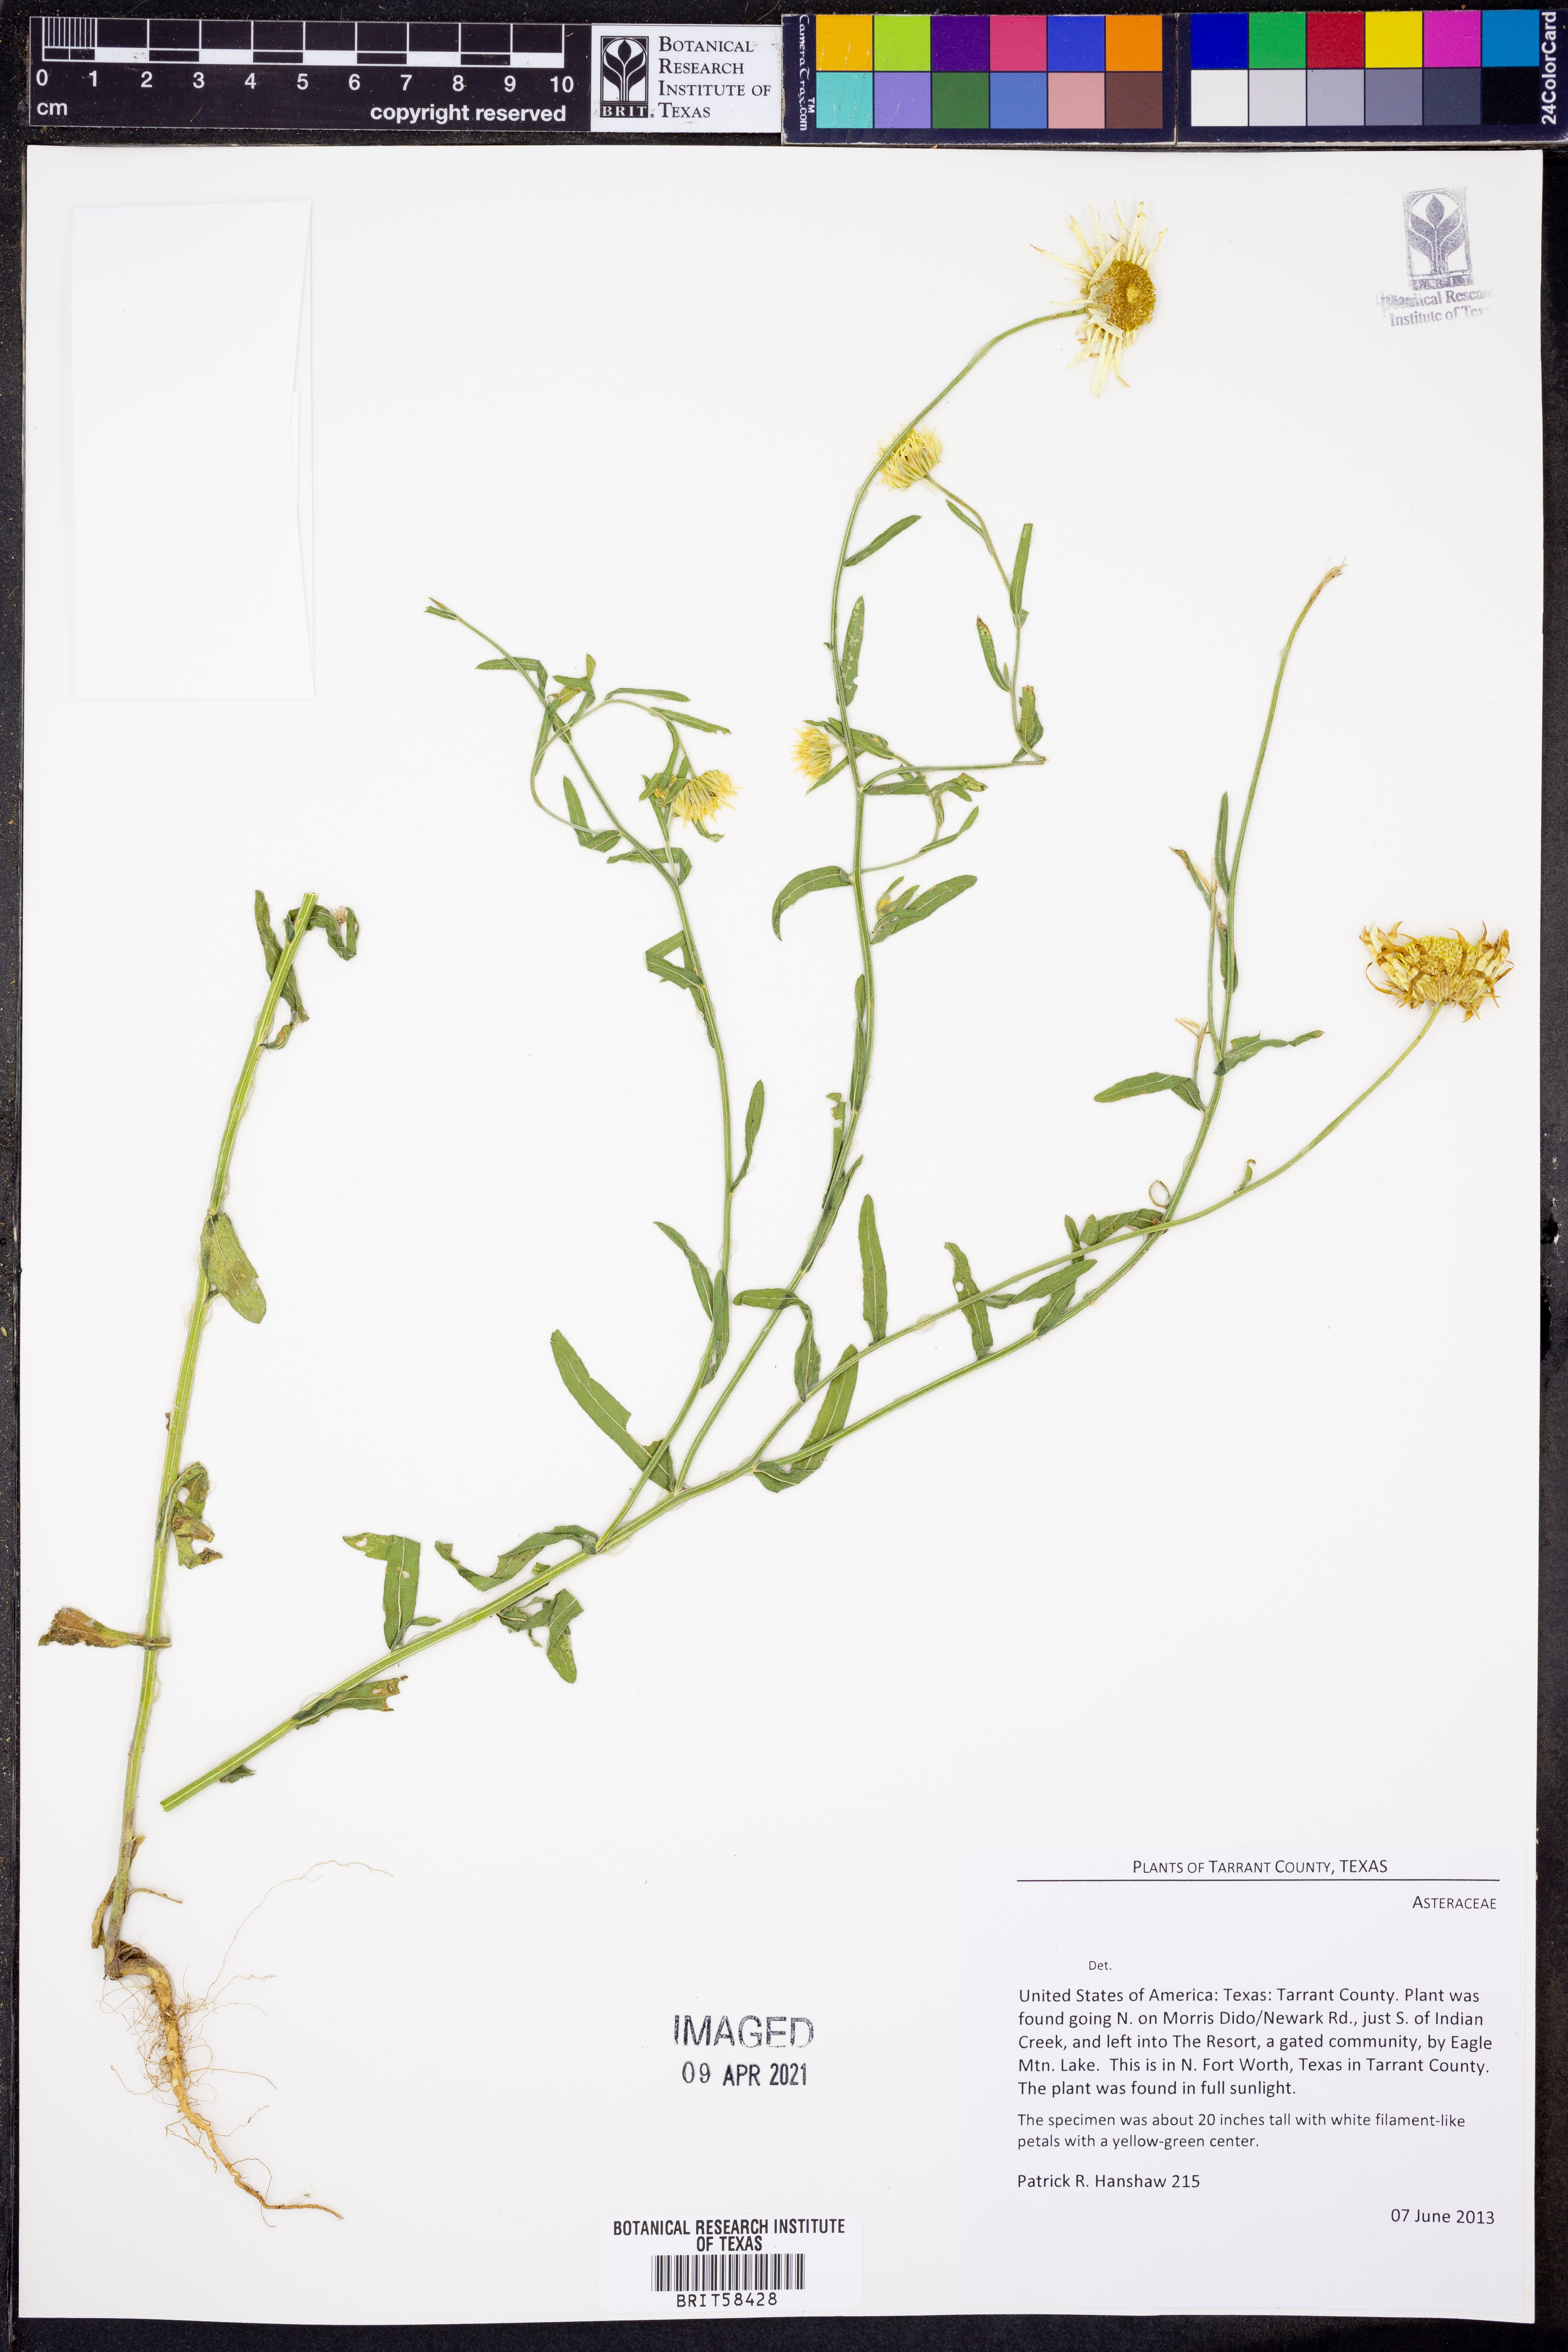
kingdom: Plantae
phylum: Tracheophyta
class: Magnoliopsida
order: Asterales
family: Asteraceae
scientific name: Asteraceae
